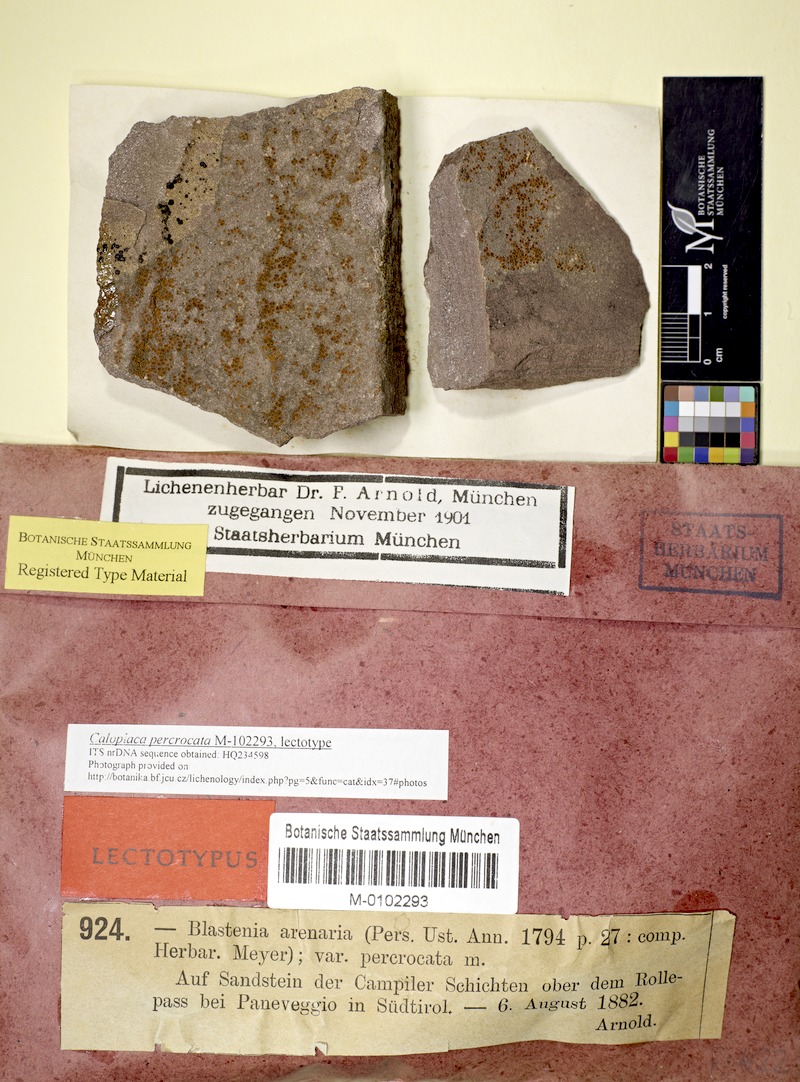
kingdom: Fungi
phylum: Ascomycota
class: Lecanoromycetes
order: Teloschistales
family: Teloschistaceae
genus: Kuettlingeria
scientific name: Kuettlingeria percrocata
